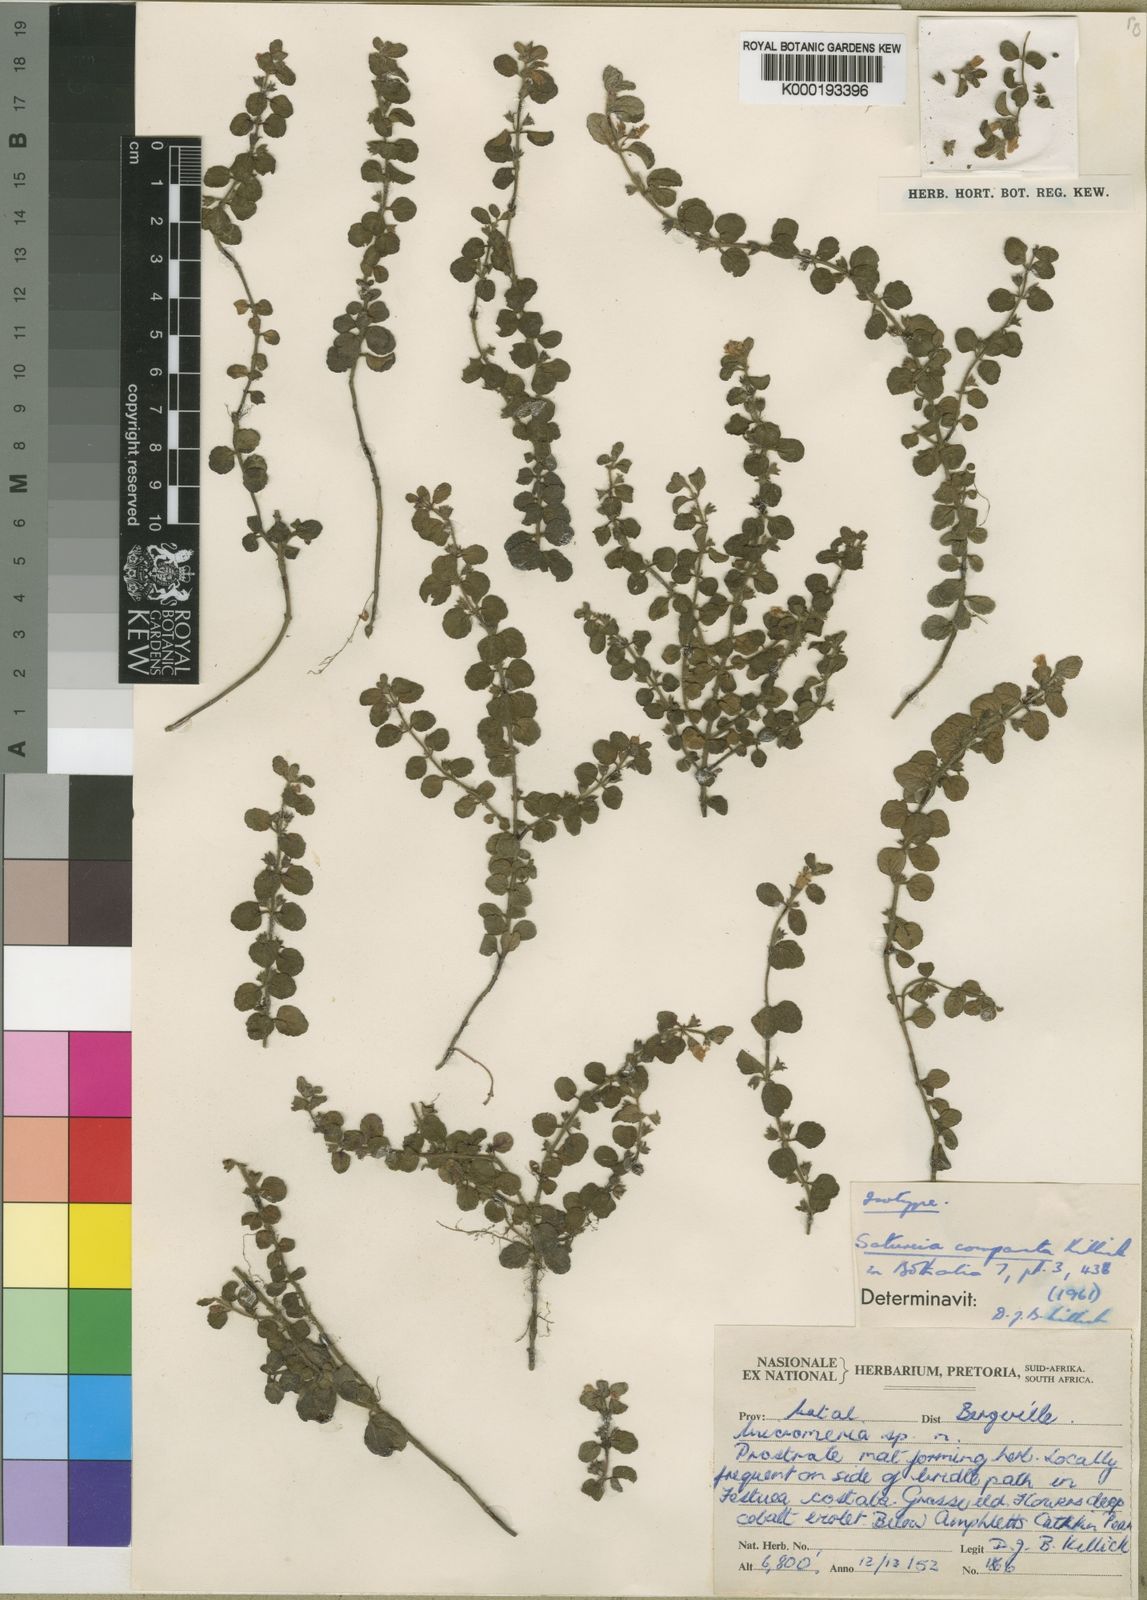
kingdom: Plantae
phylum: Tracheophyta
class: Magnoliopsida
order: Lamiales
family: Lamiaceae
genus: Killickia
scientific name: Killickia
